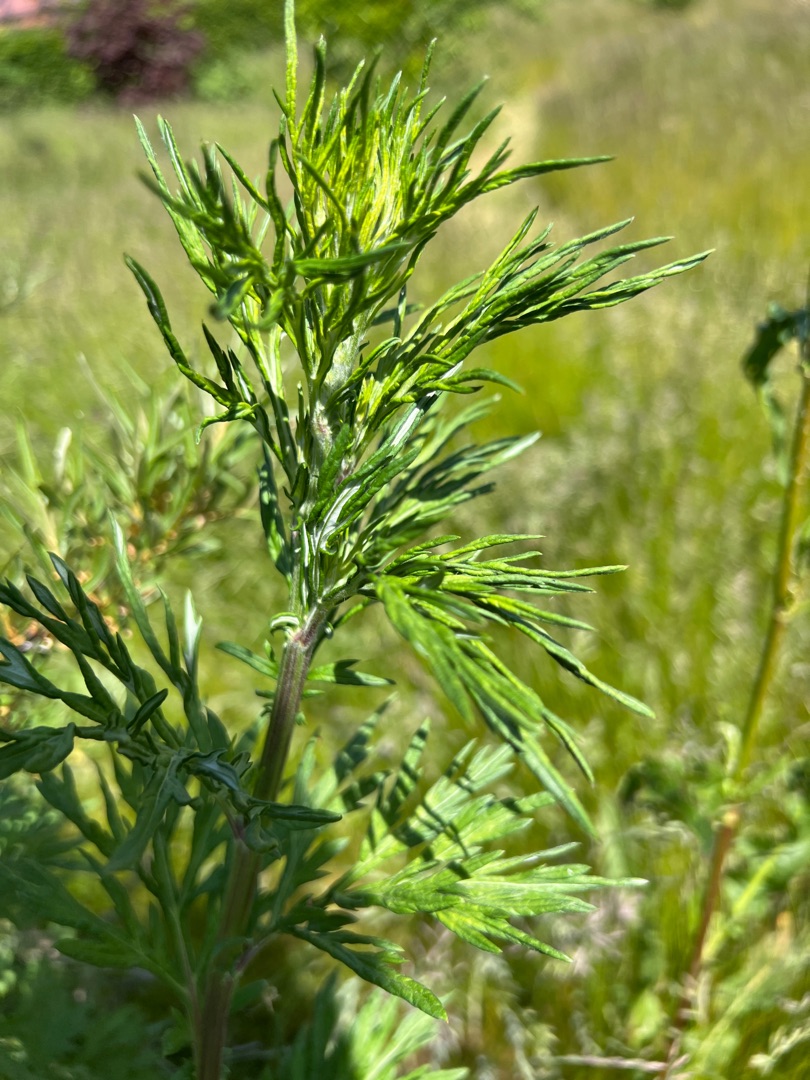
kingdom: Plantae
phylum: Tracheophyta
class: Magnoliopsida
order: Asterales
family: Asteraceae
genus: Artemisia
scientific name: Artemisia vulgaris
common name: Grå-bynke
